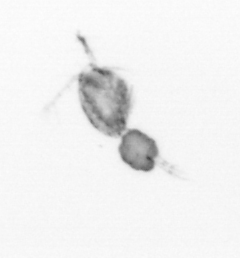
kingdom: Animalia
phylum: Arthropoda
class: Copepoda
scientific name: Copepoda
